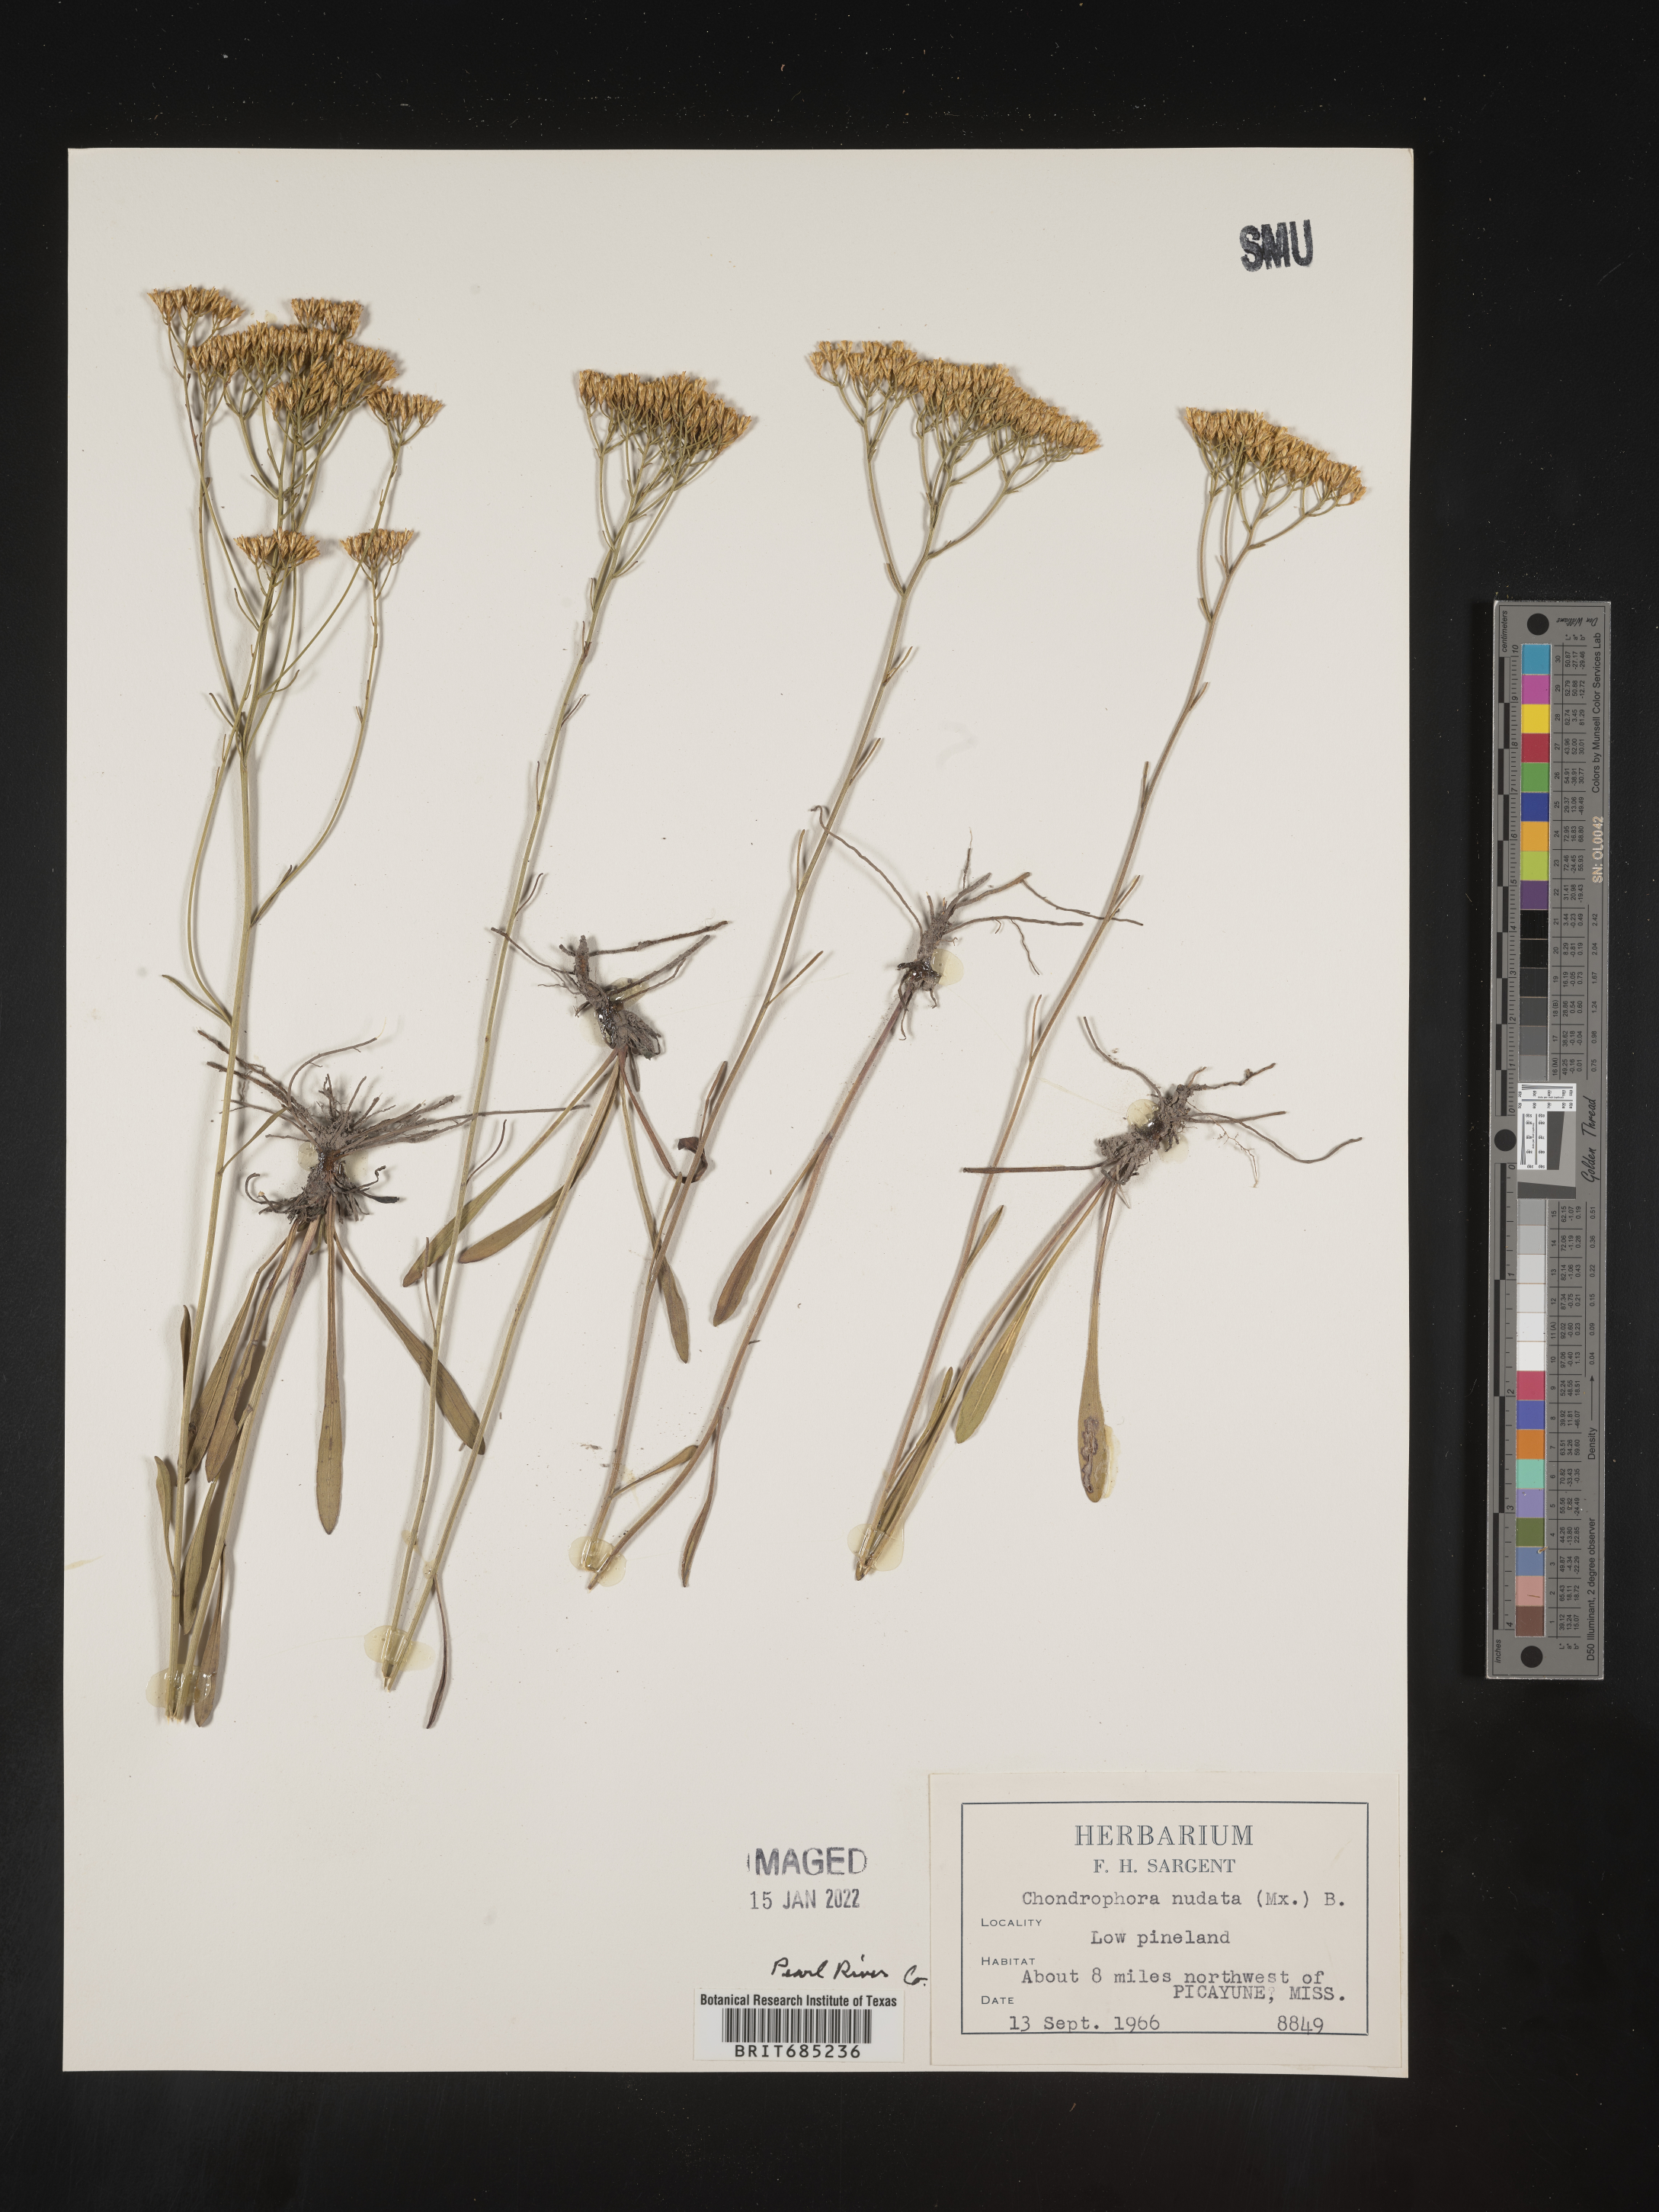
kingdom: Plantae
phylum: Tracheophyta
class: Magnoliopsida
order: Asterales
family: Asteraceae
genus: Bigelowia
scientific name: Bigelowia nudata
